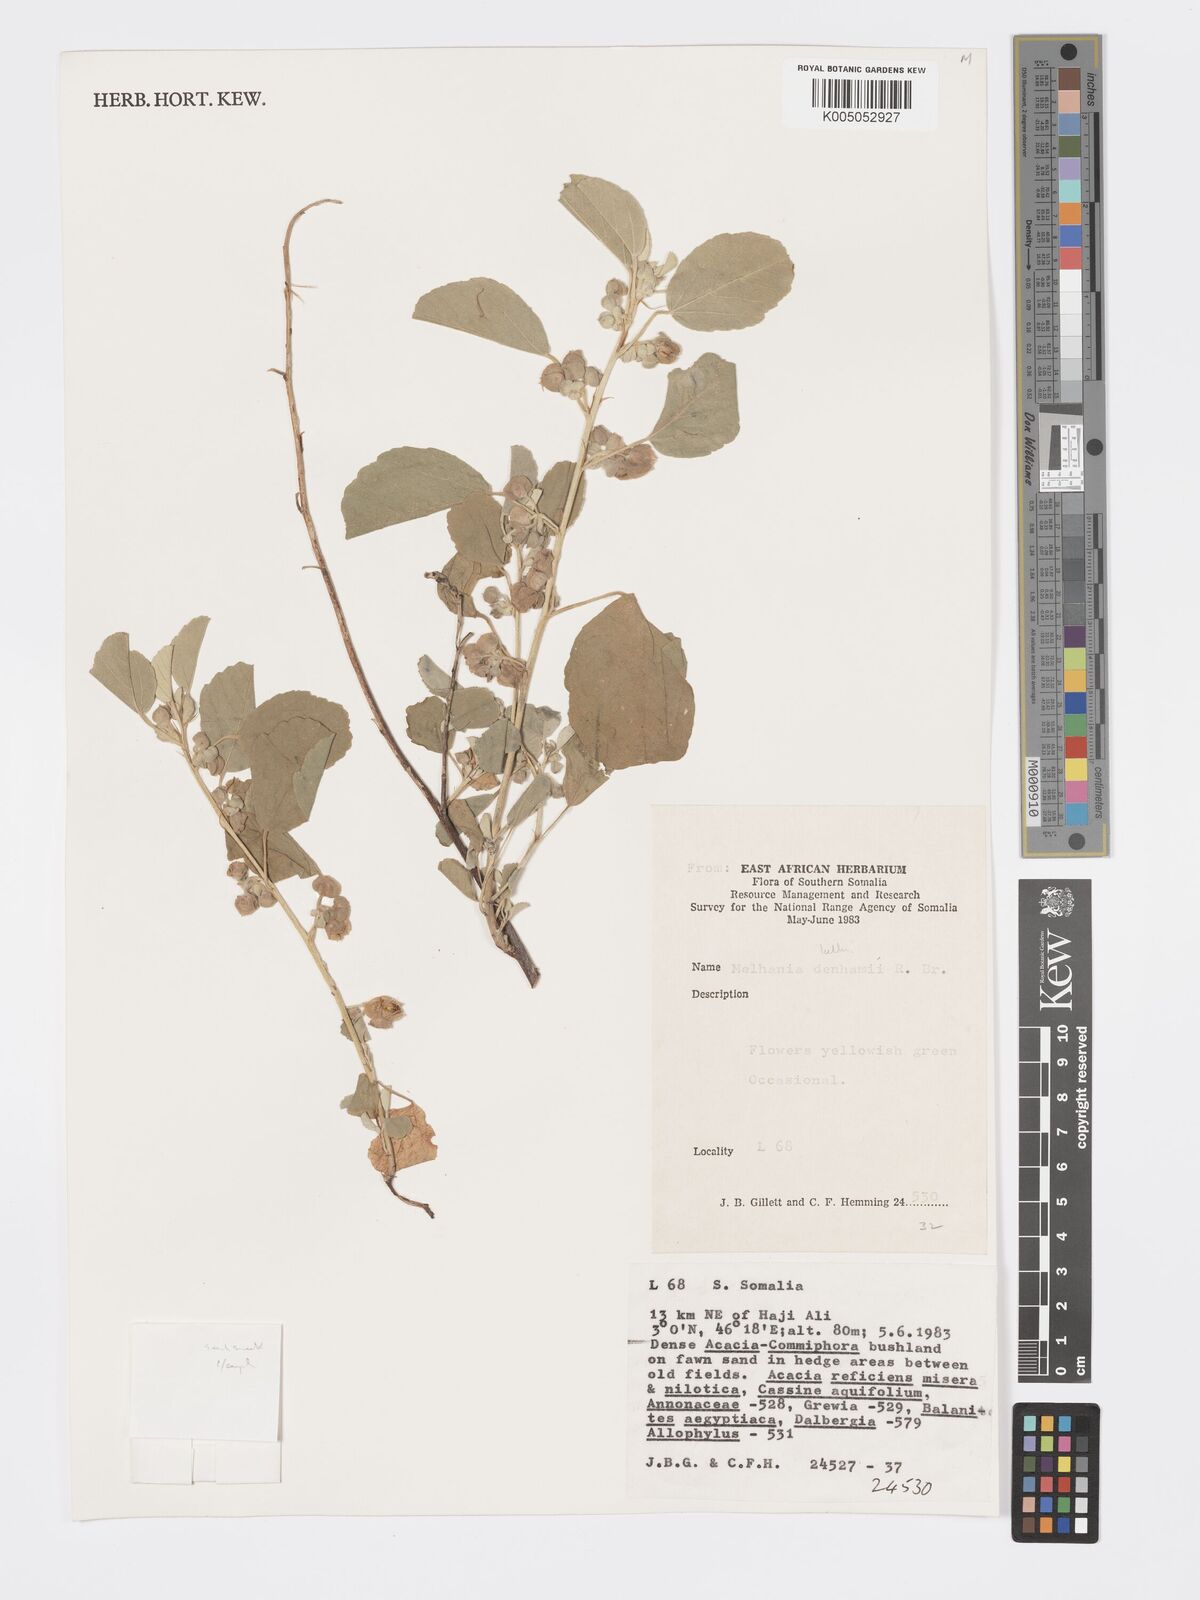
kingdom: Plantae
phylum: Tracheophyta
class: Magnoliopsida
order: Malvales
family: Malvaceae
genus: Melhania
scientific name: Melhania kelleri
